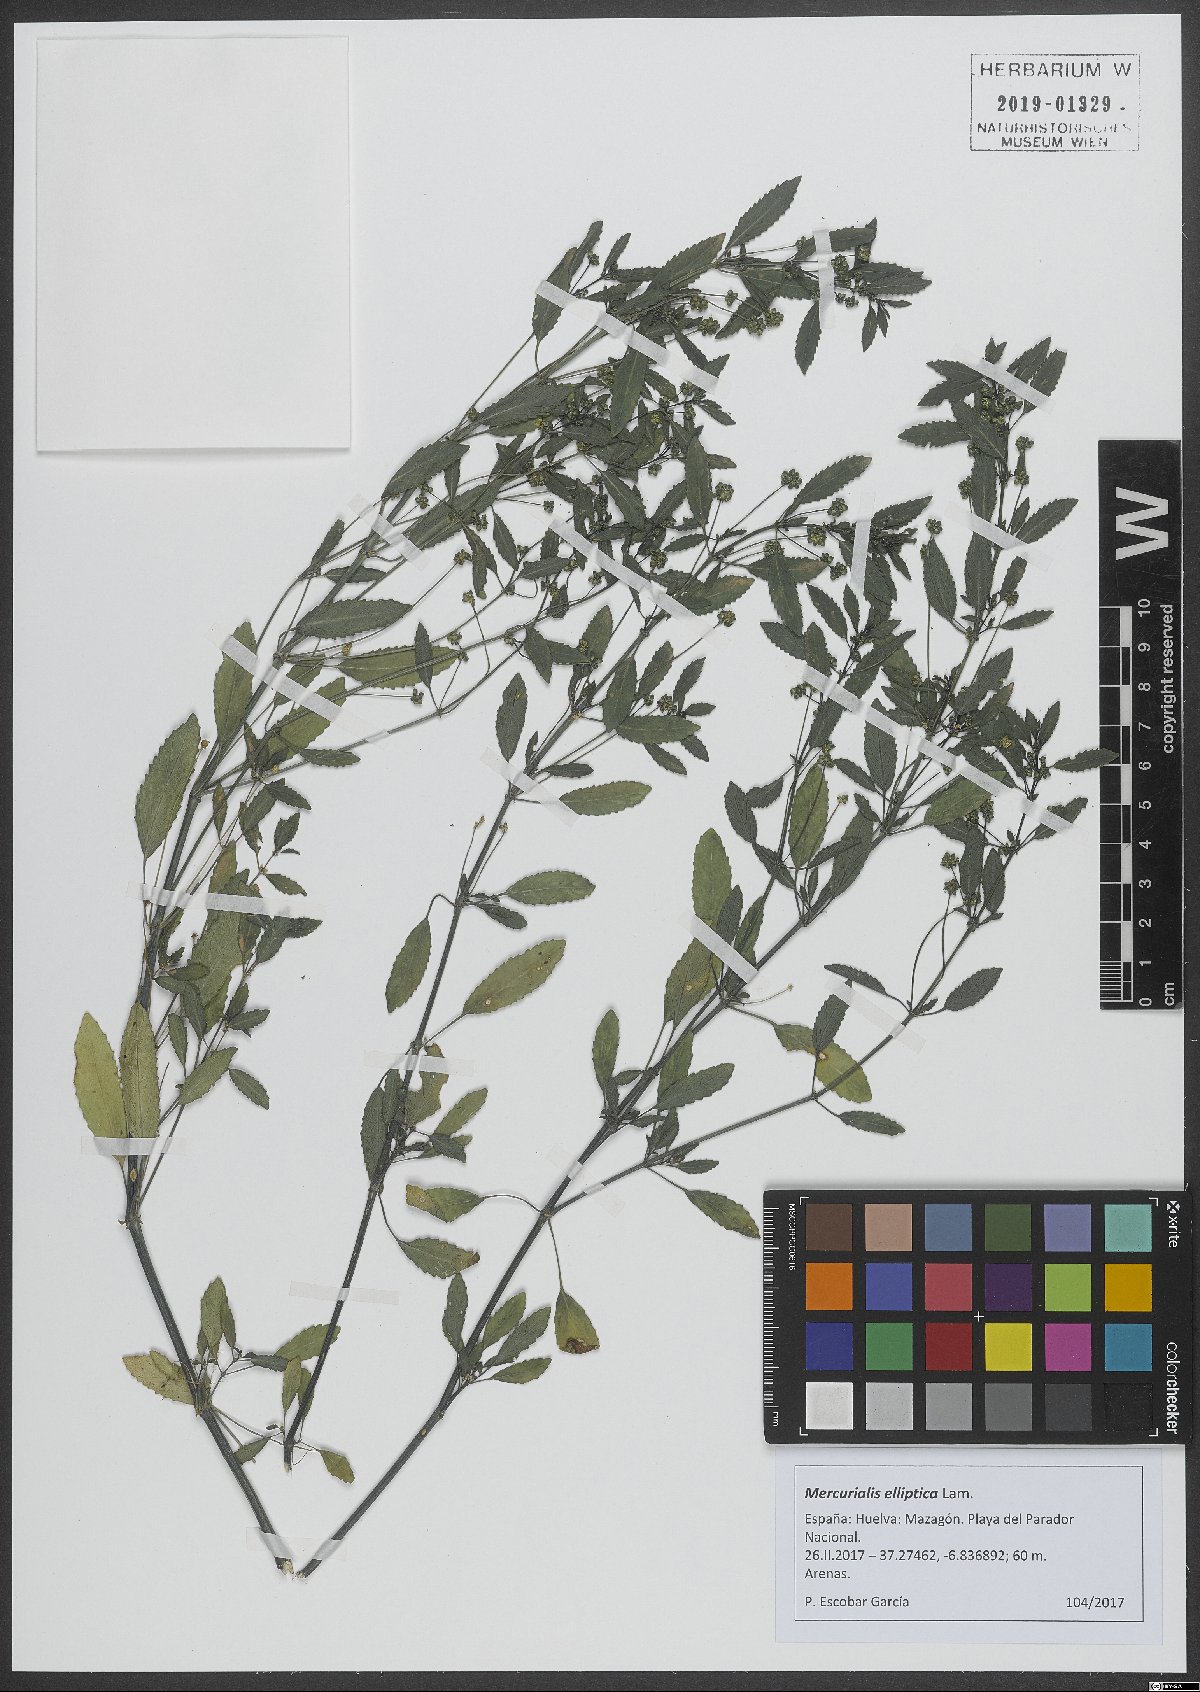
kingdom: Plantae
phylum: Tracheophyta
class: Magnoliopsida
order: Malpighiales
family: Euphorbiaceae
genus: Mercurialis
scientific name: Mercurialis elliptica
